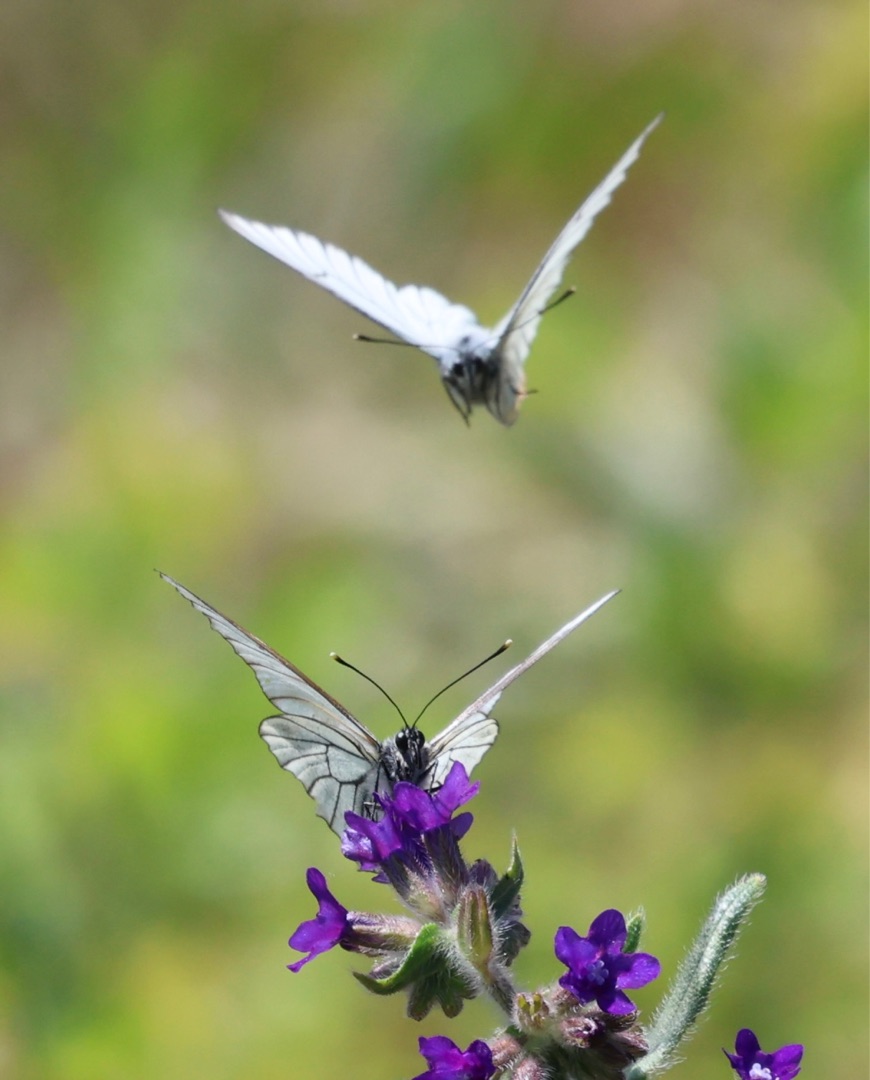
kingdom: Animalia
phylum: Arthropoda
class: Insecta
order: Lepidoptera
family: Pieridae
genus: Aporia
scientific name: Aporia crataegi
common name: Sortåret hvidvinge
